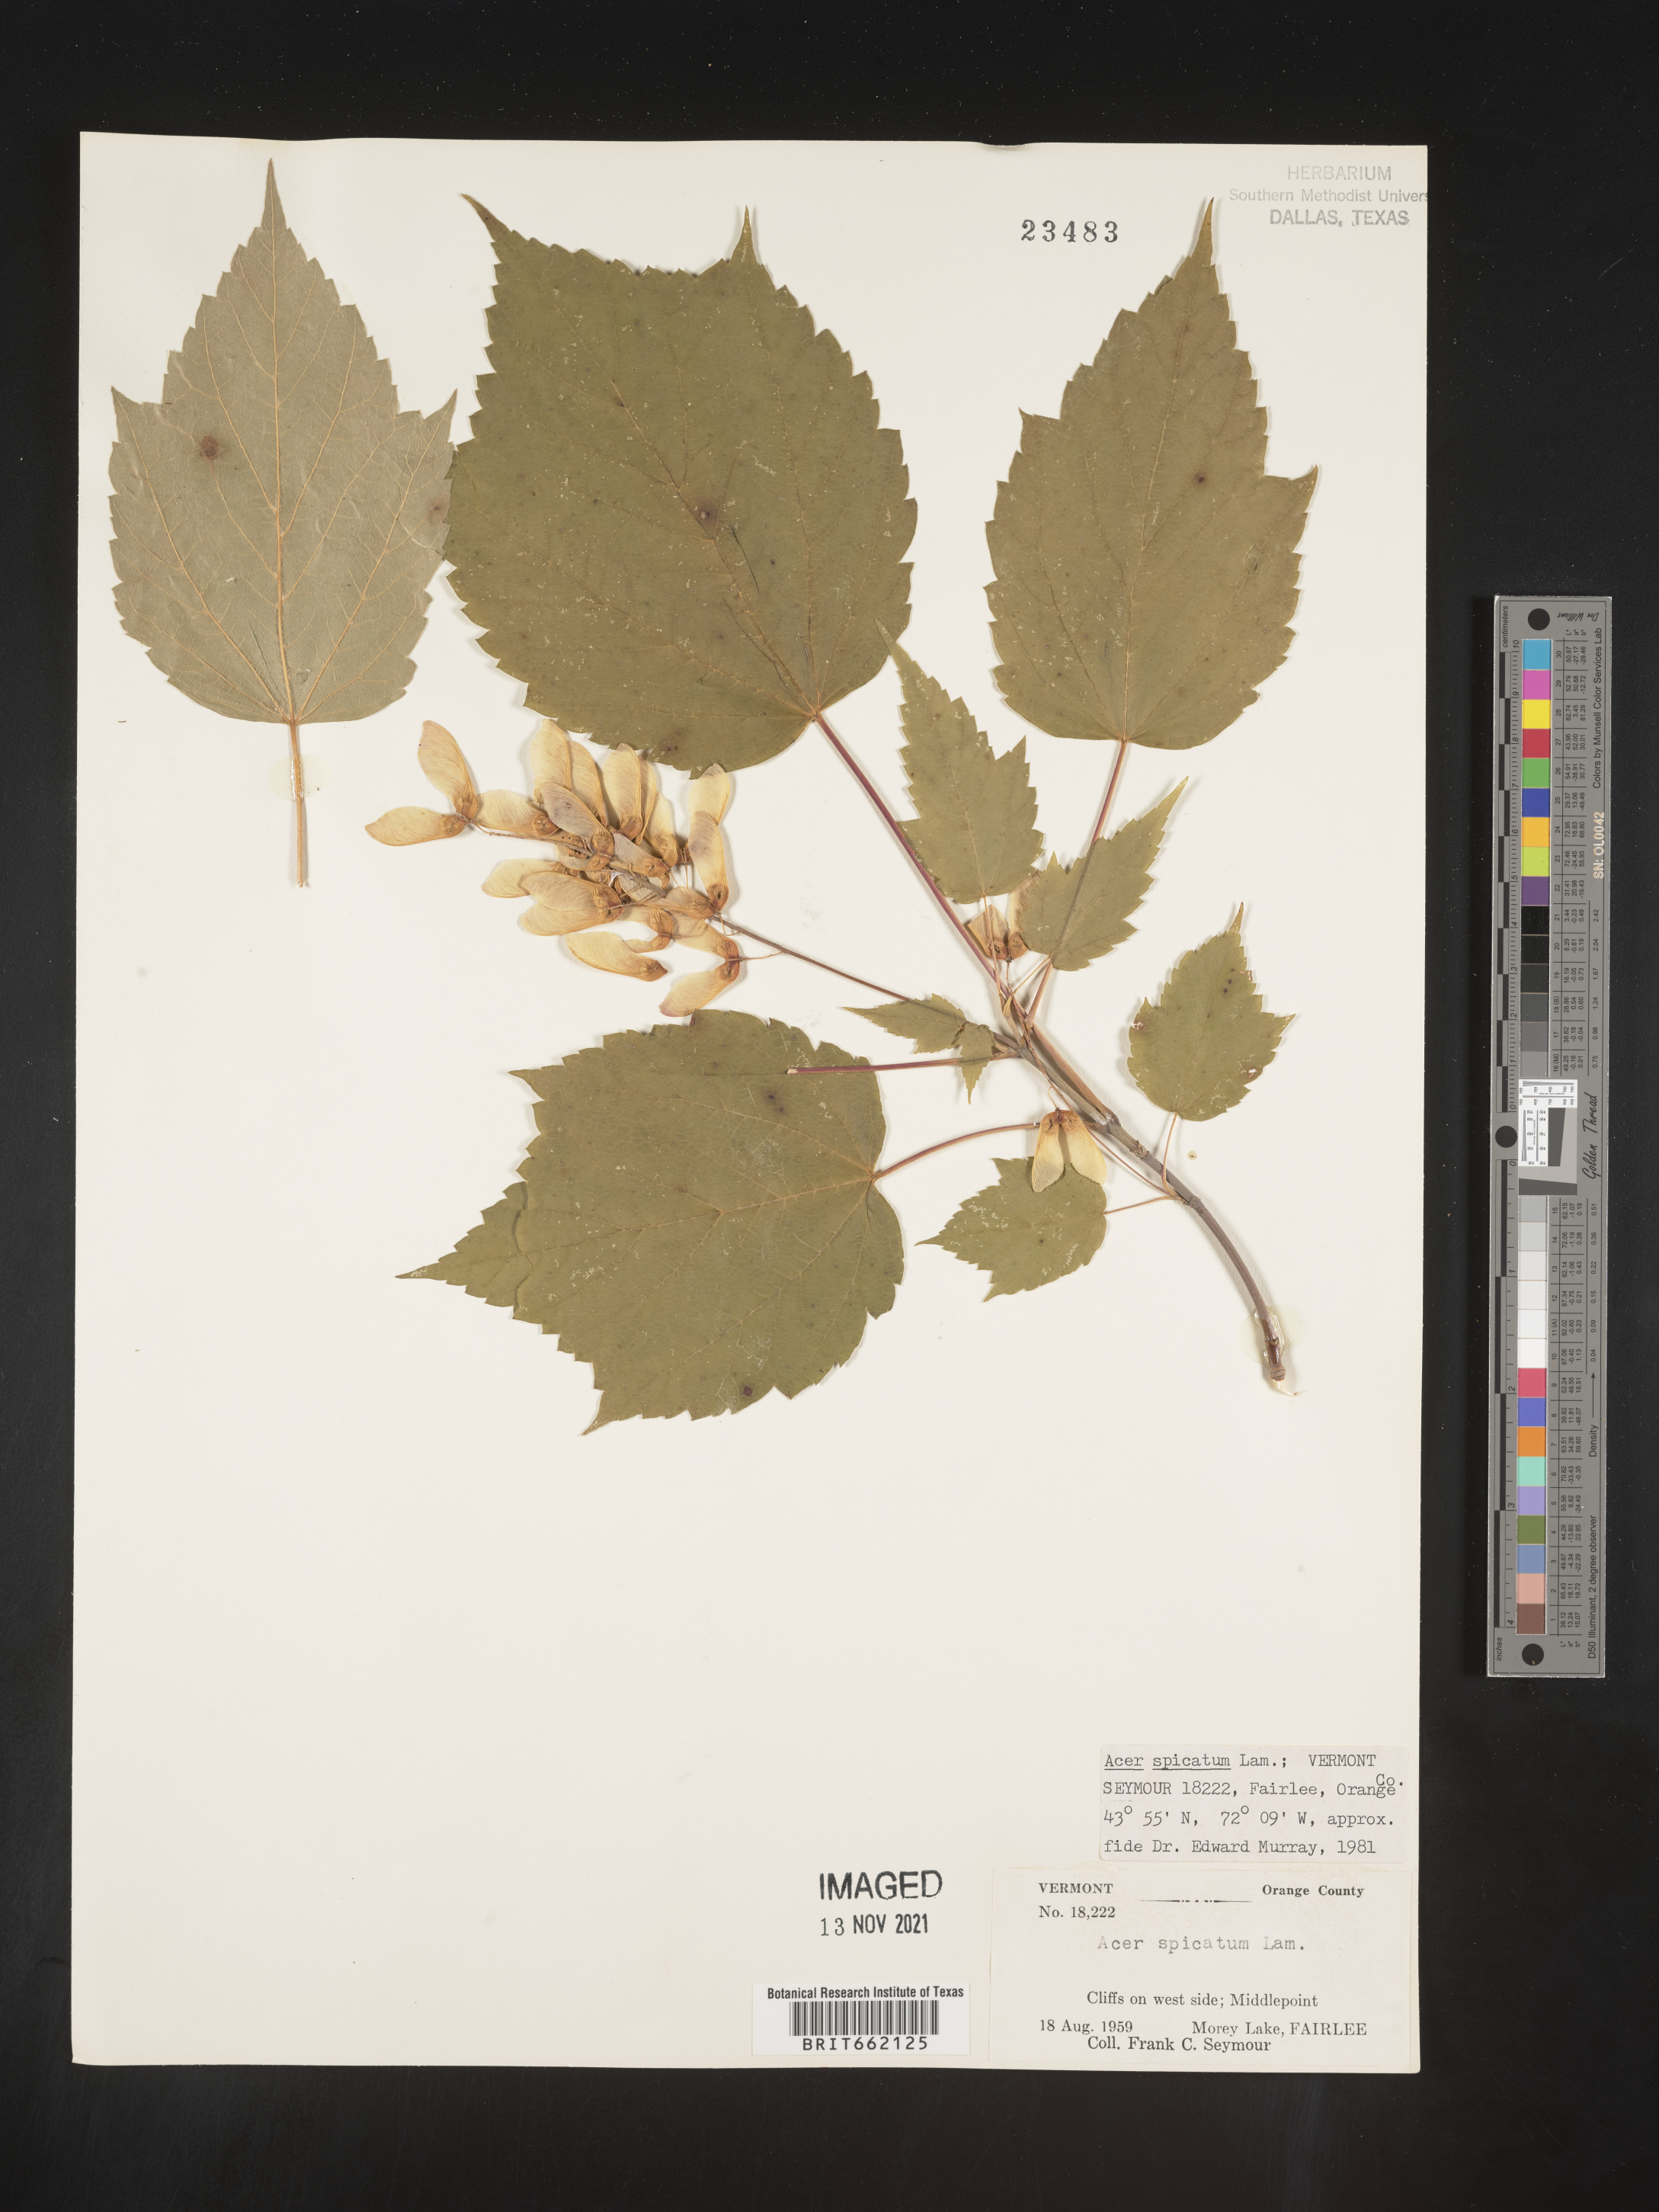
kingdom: Plantae
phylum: Tracheophyta
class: Magnoliopsida
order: Sapindales
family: Sapindaceae
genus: Acer
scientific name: Acer spicatum
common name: Mountain maple
